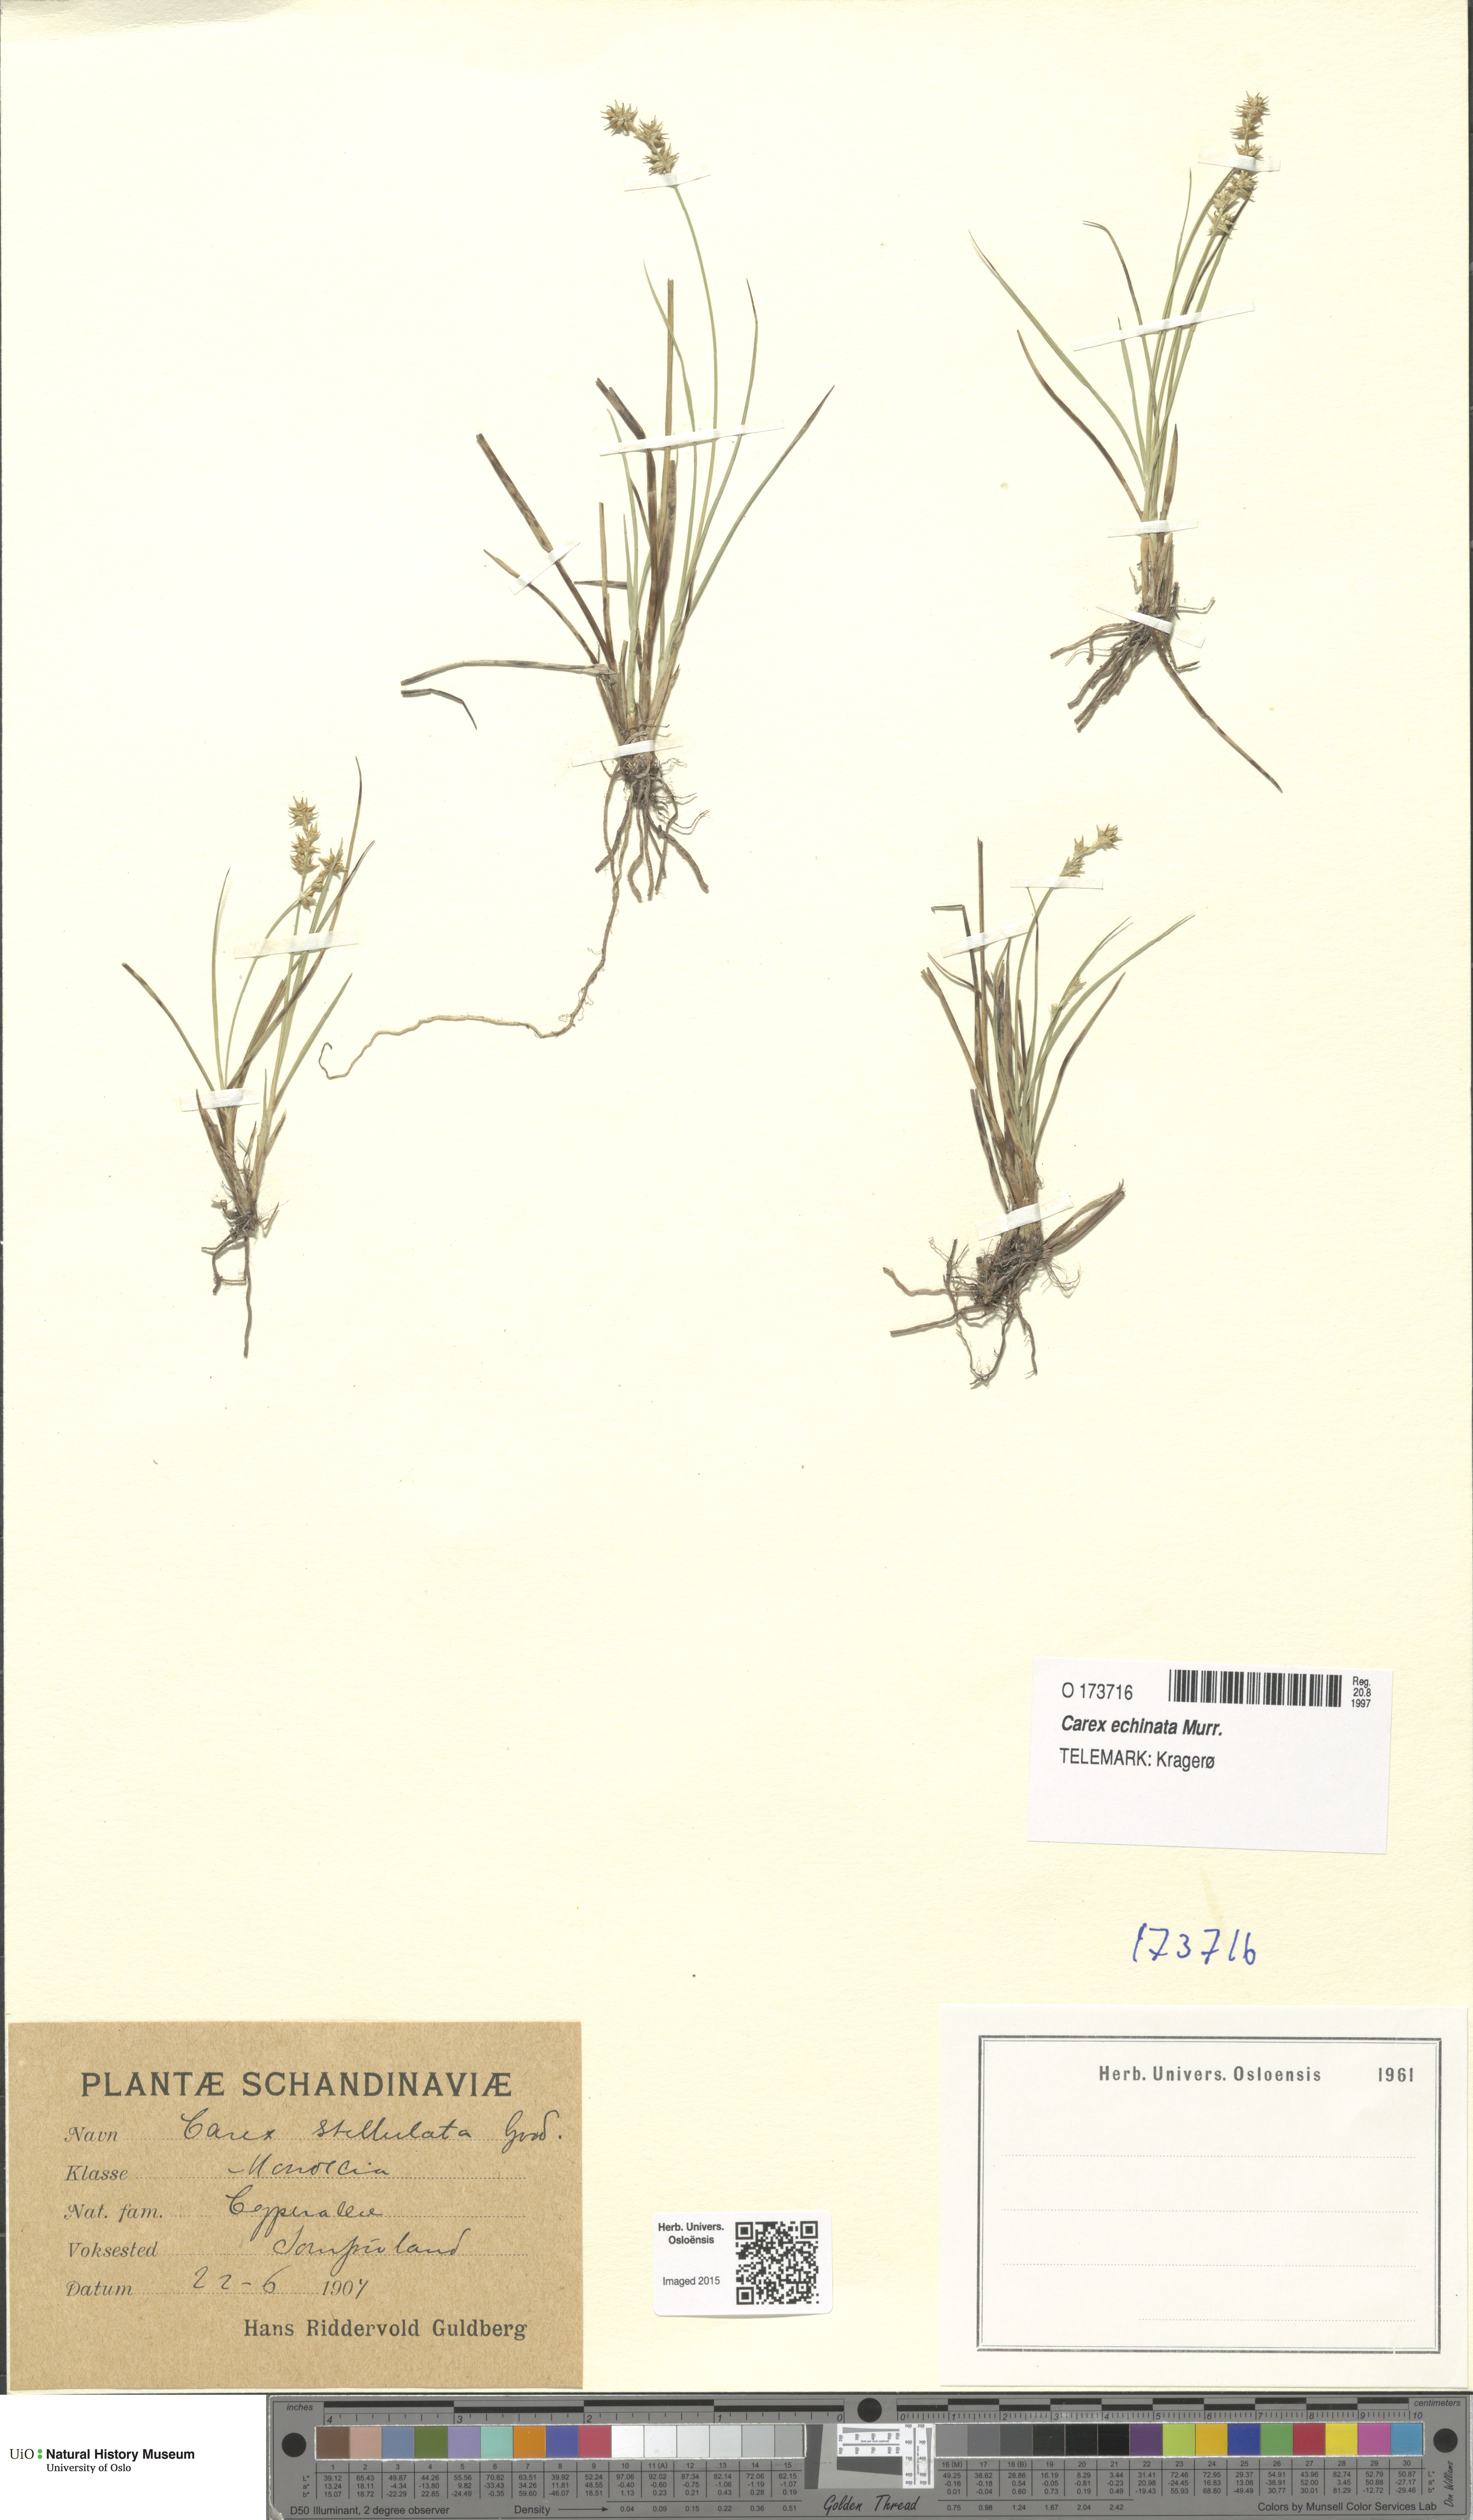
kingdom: Plantae
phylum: Tracheophyta
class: Liliopsida
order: Poales
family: Cyperaceae
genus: Carex
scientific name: Carex echinata
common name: Star sedge
